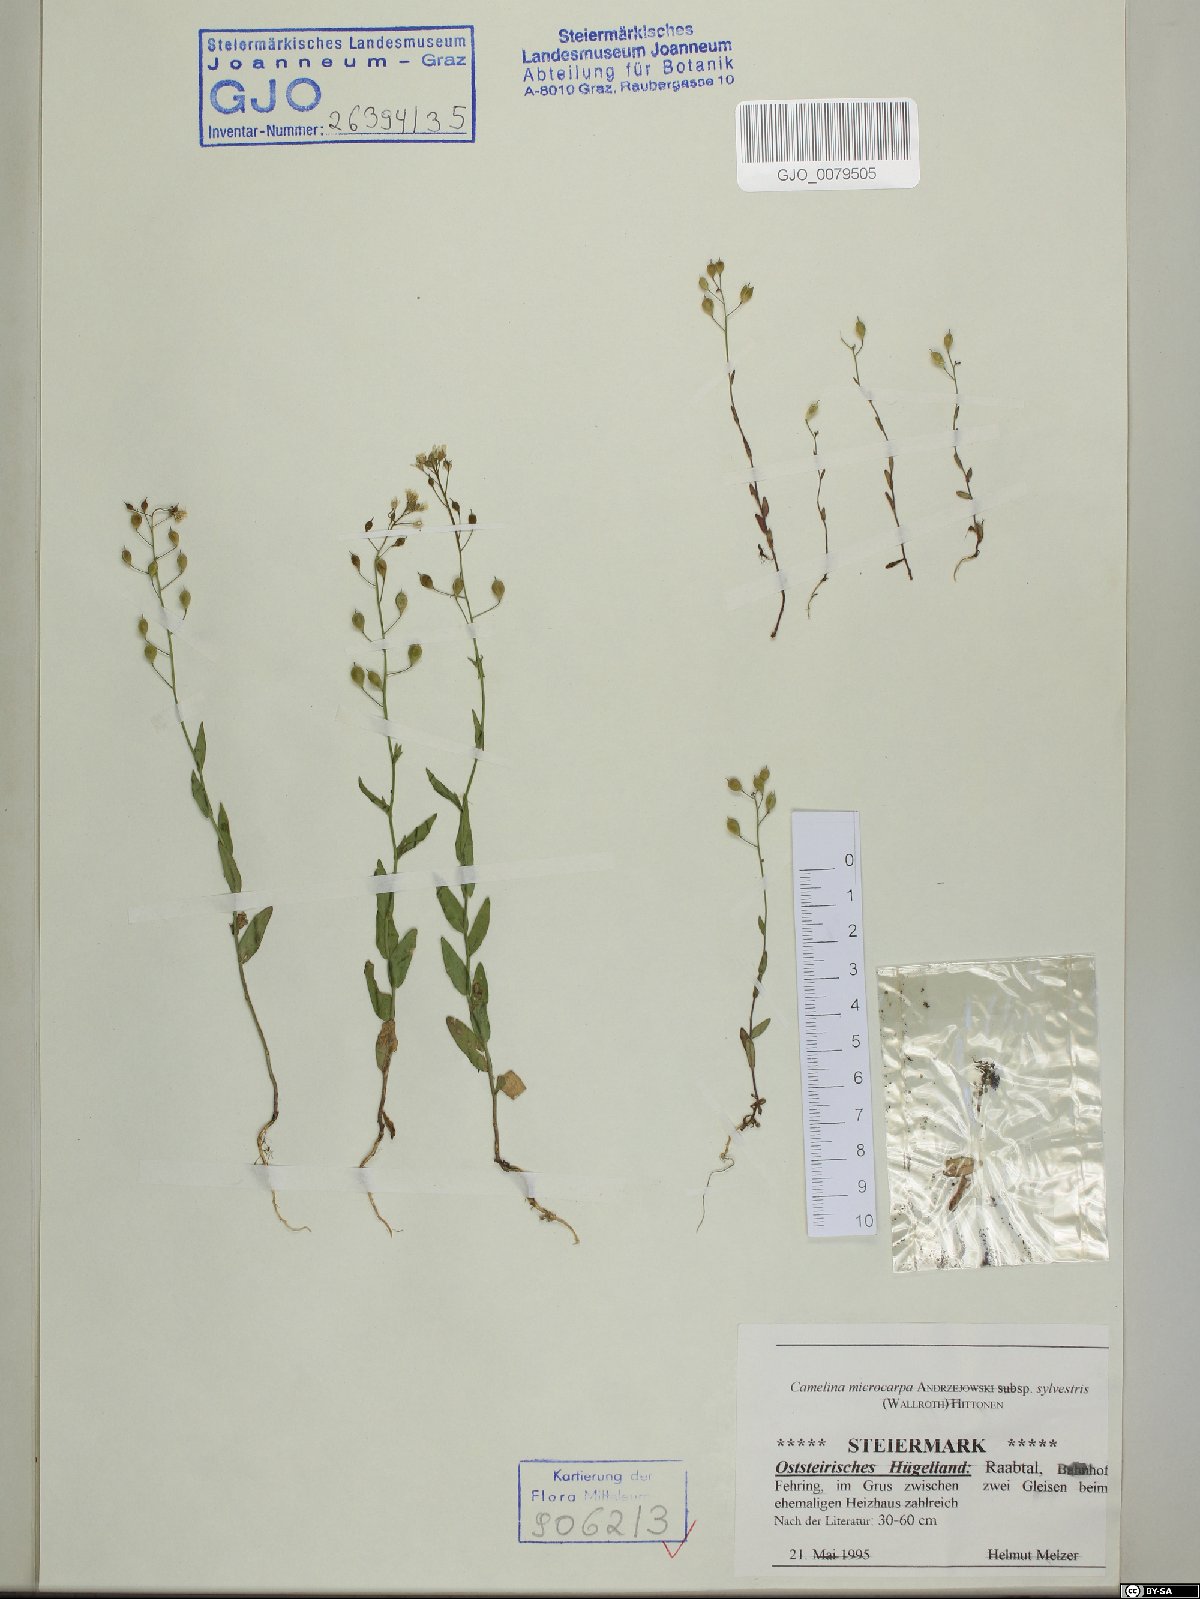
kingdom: Plantae
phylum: Tracheophyta
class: Magnoliopsida
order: Brassicales
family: Brassicaceae
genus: Camelina
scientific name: Camelina microcarpa
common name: Lesser gold-of-pleasure
